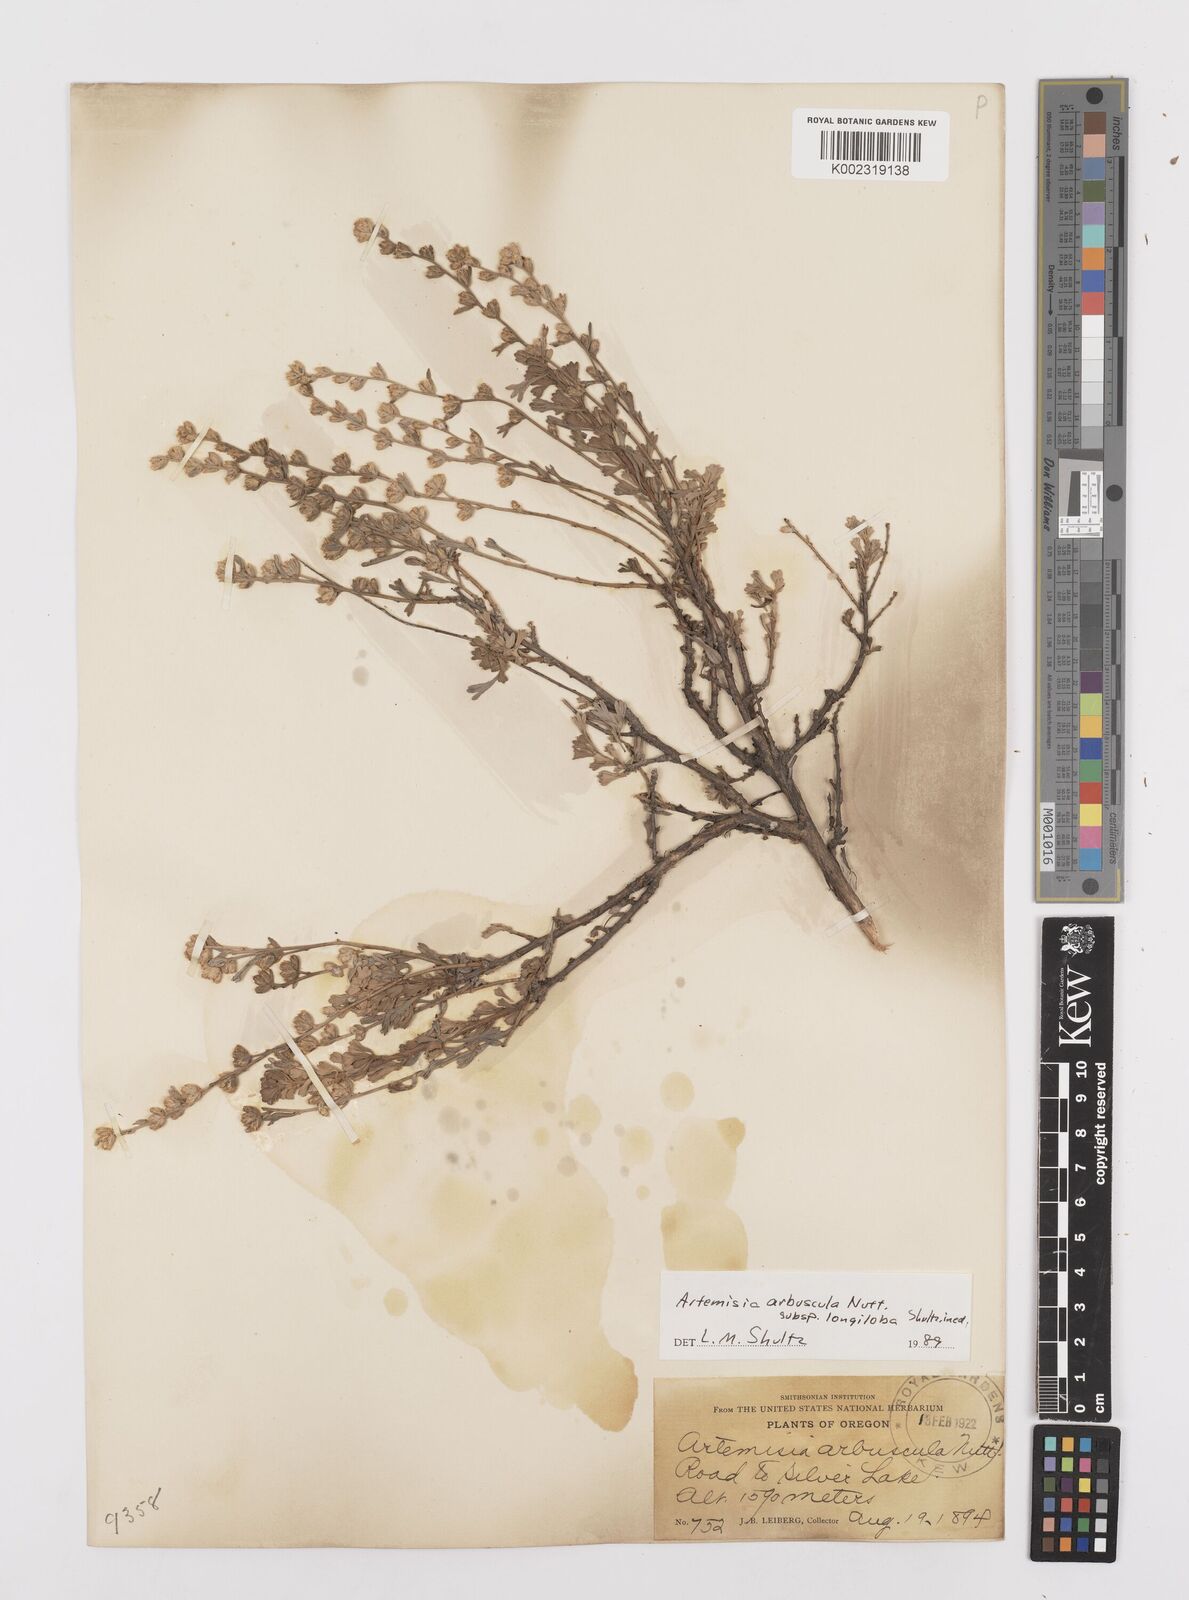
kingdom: Plantae
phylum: Tracheophyta
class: Magnoliopsida
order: Asterales
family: Asteraceae
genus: Artemisia
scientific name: Artemisia arbuscula
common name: Sagebrush
